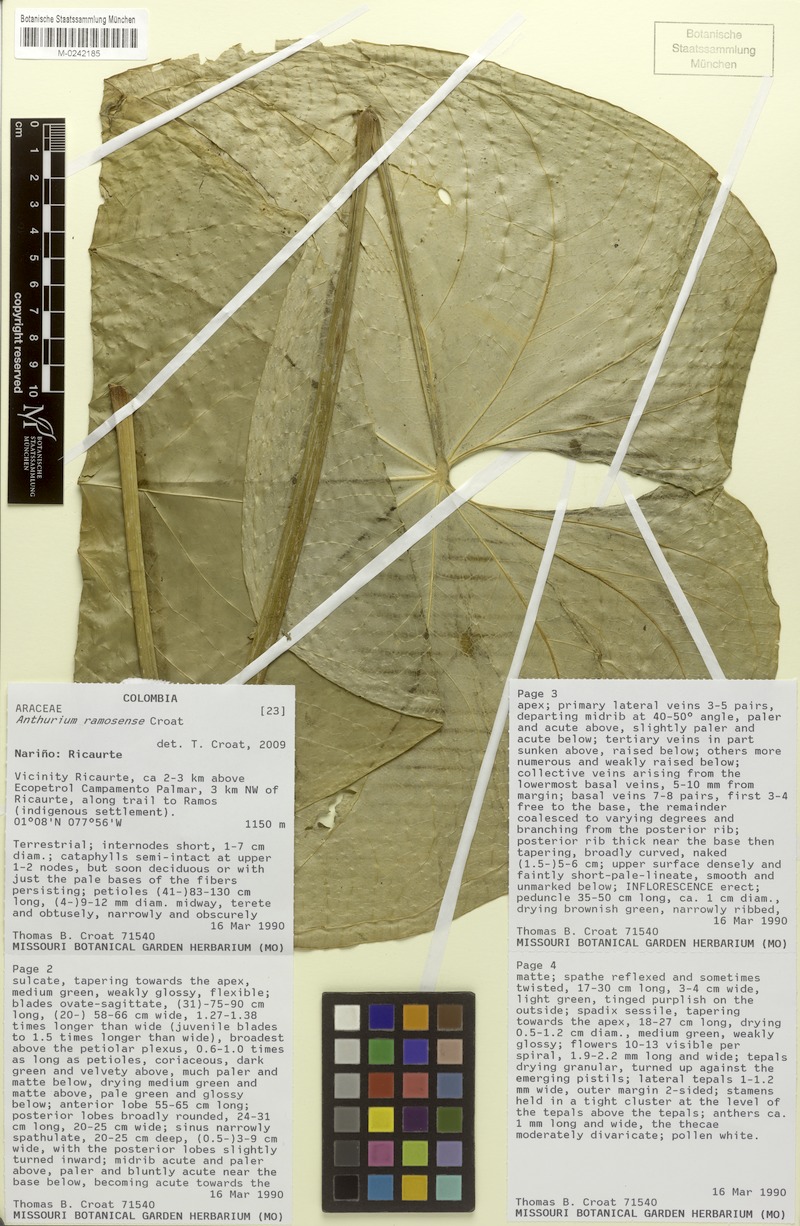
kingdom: Plantae
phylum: Tracheophyta
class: Liliopsida
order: Alismatales
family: Araceae
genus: Anthurium
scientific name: Anthurium ramosense
